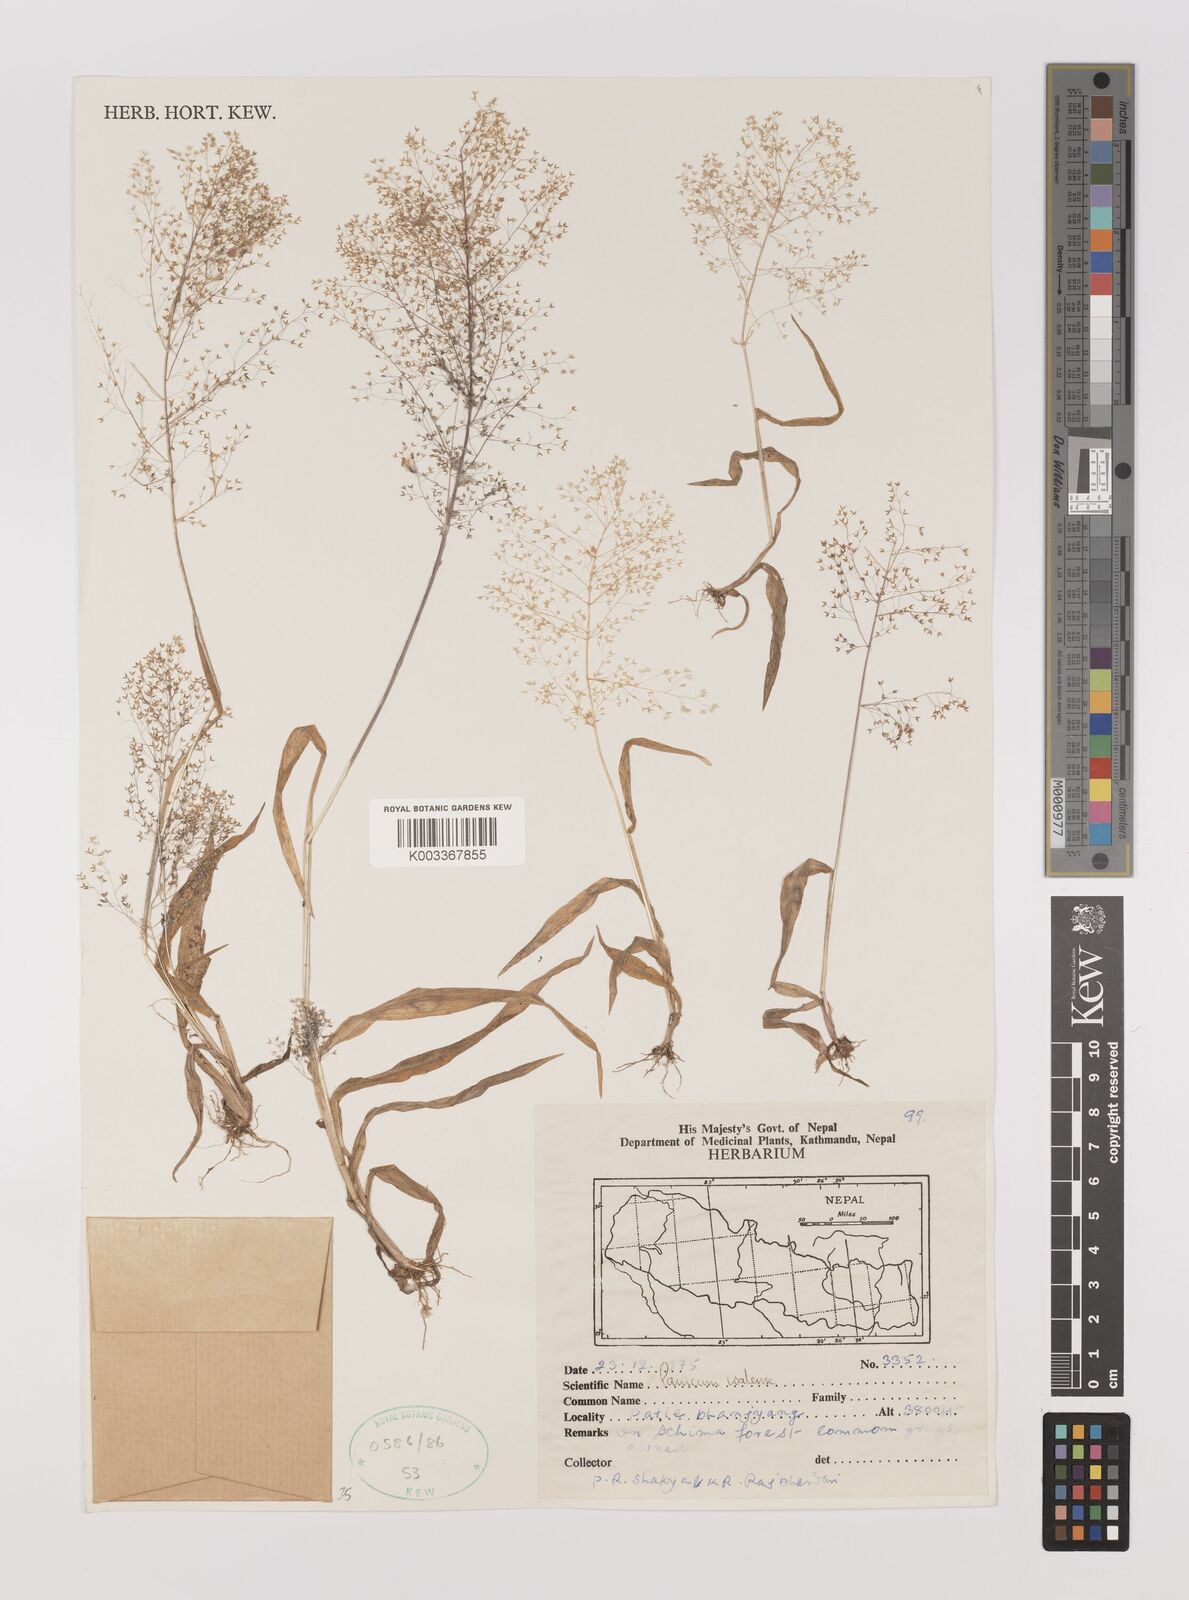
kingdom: Plantae
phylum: Tracheophyta
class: Liliopsida
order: Poales
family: Poaceae
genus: Panicum
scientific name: Panicum humile
